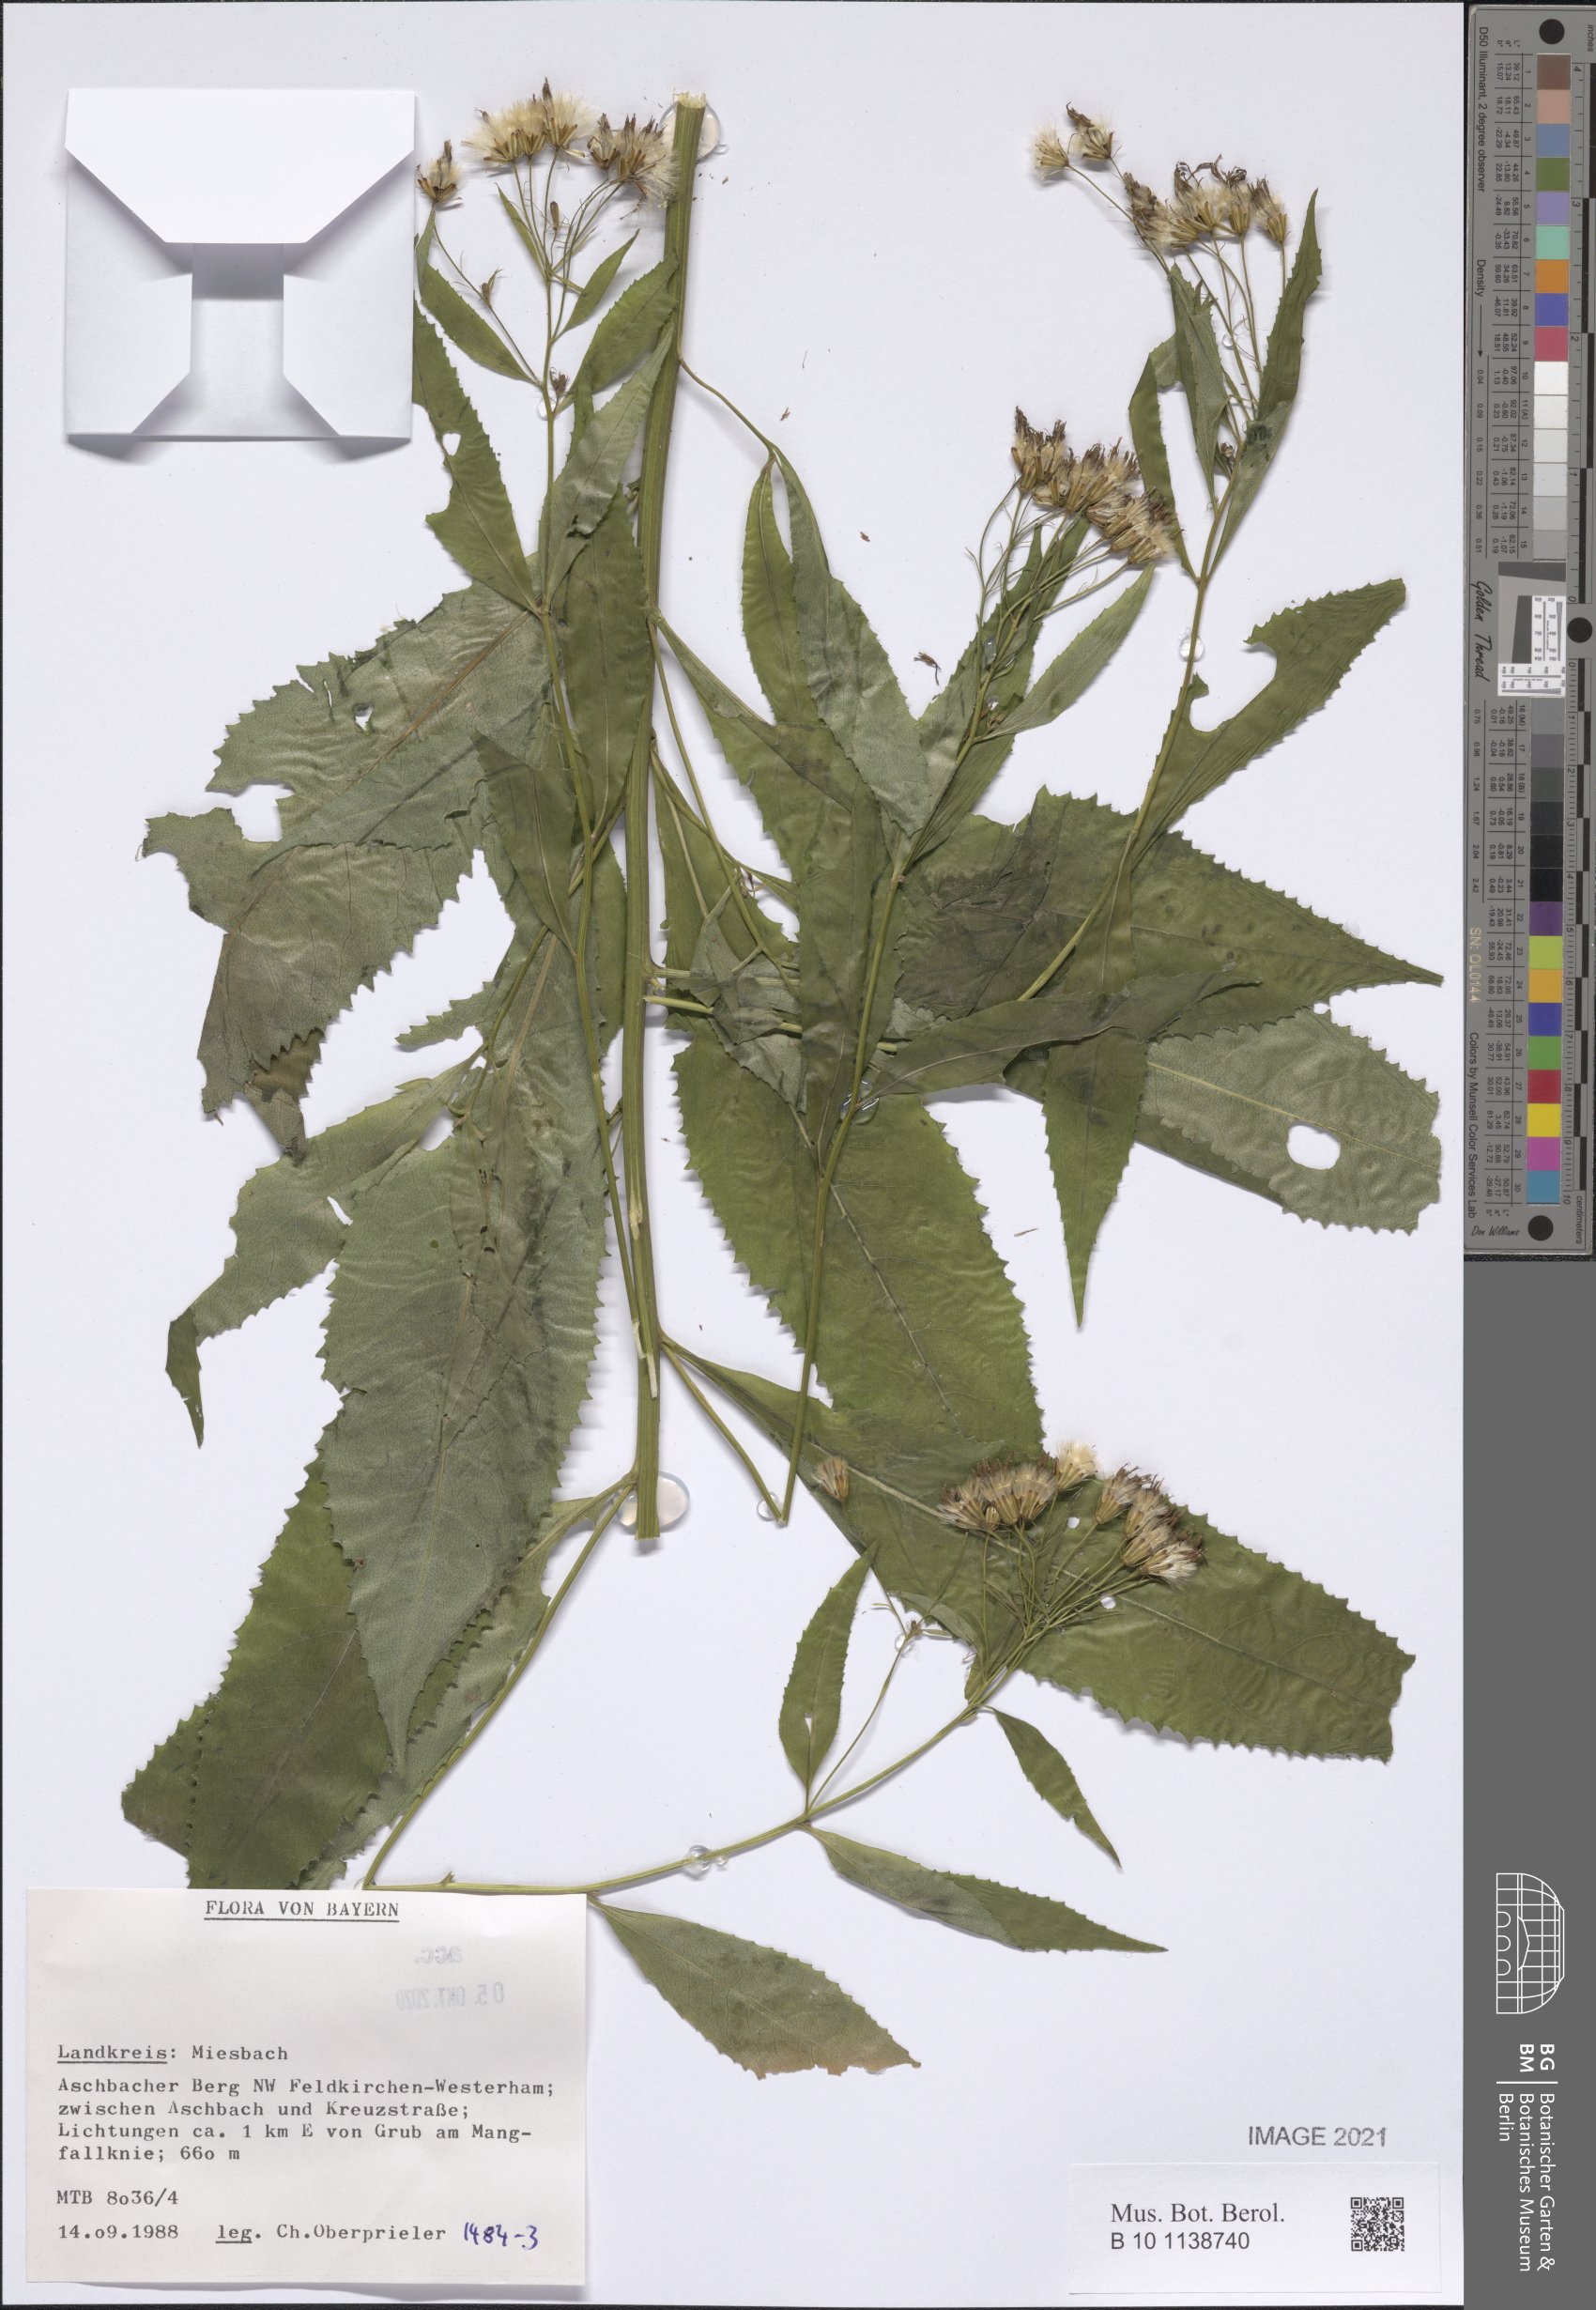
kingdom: Plantae
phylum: Tracheophyta
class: Magnoliopsida
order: Asterales
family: Asteraceae
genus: Senecio
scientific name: Senecio
